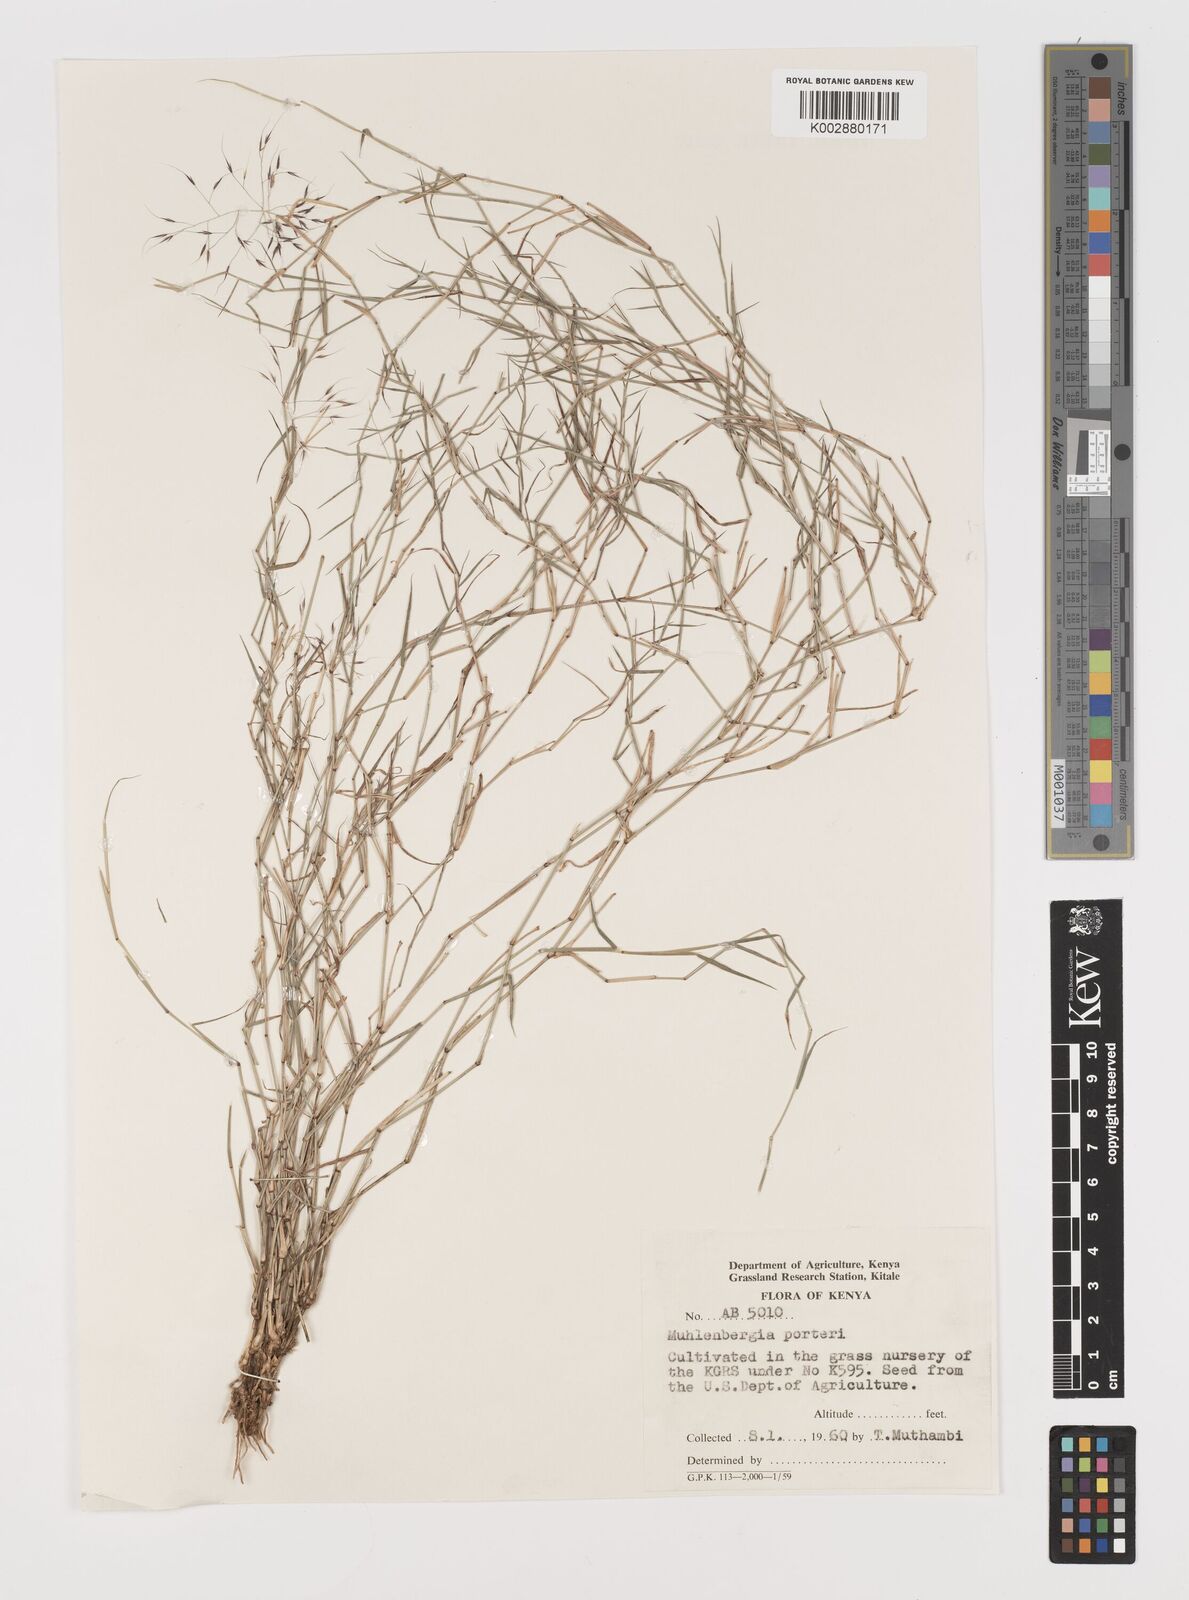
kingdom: Plantae
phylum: Tracheophyta
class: Liliopsida
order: Poales
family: Poaceae
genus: Muhlenbergia
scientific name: Muhlenbergia porteri
